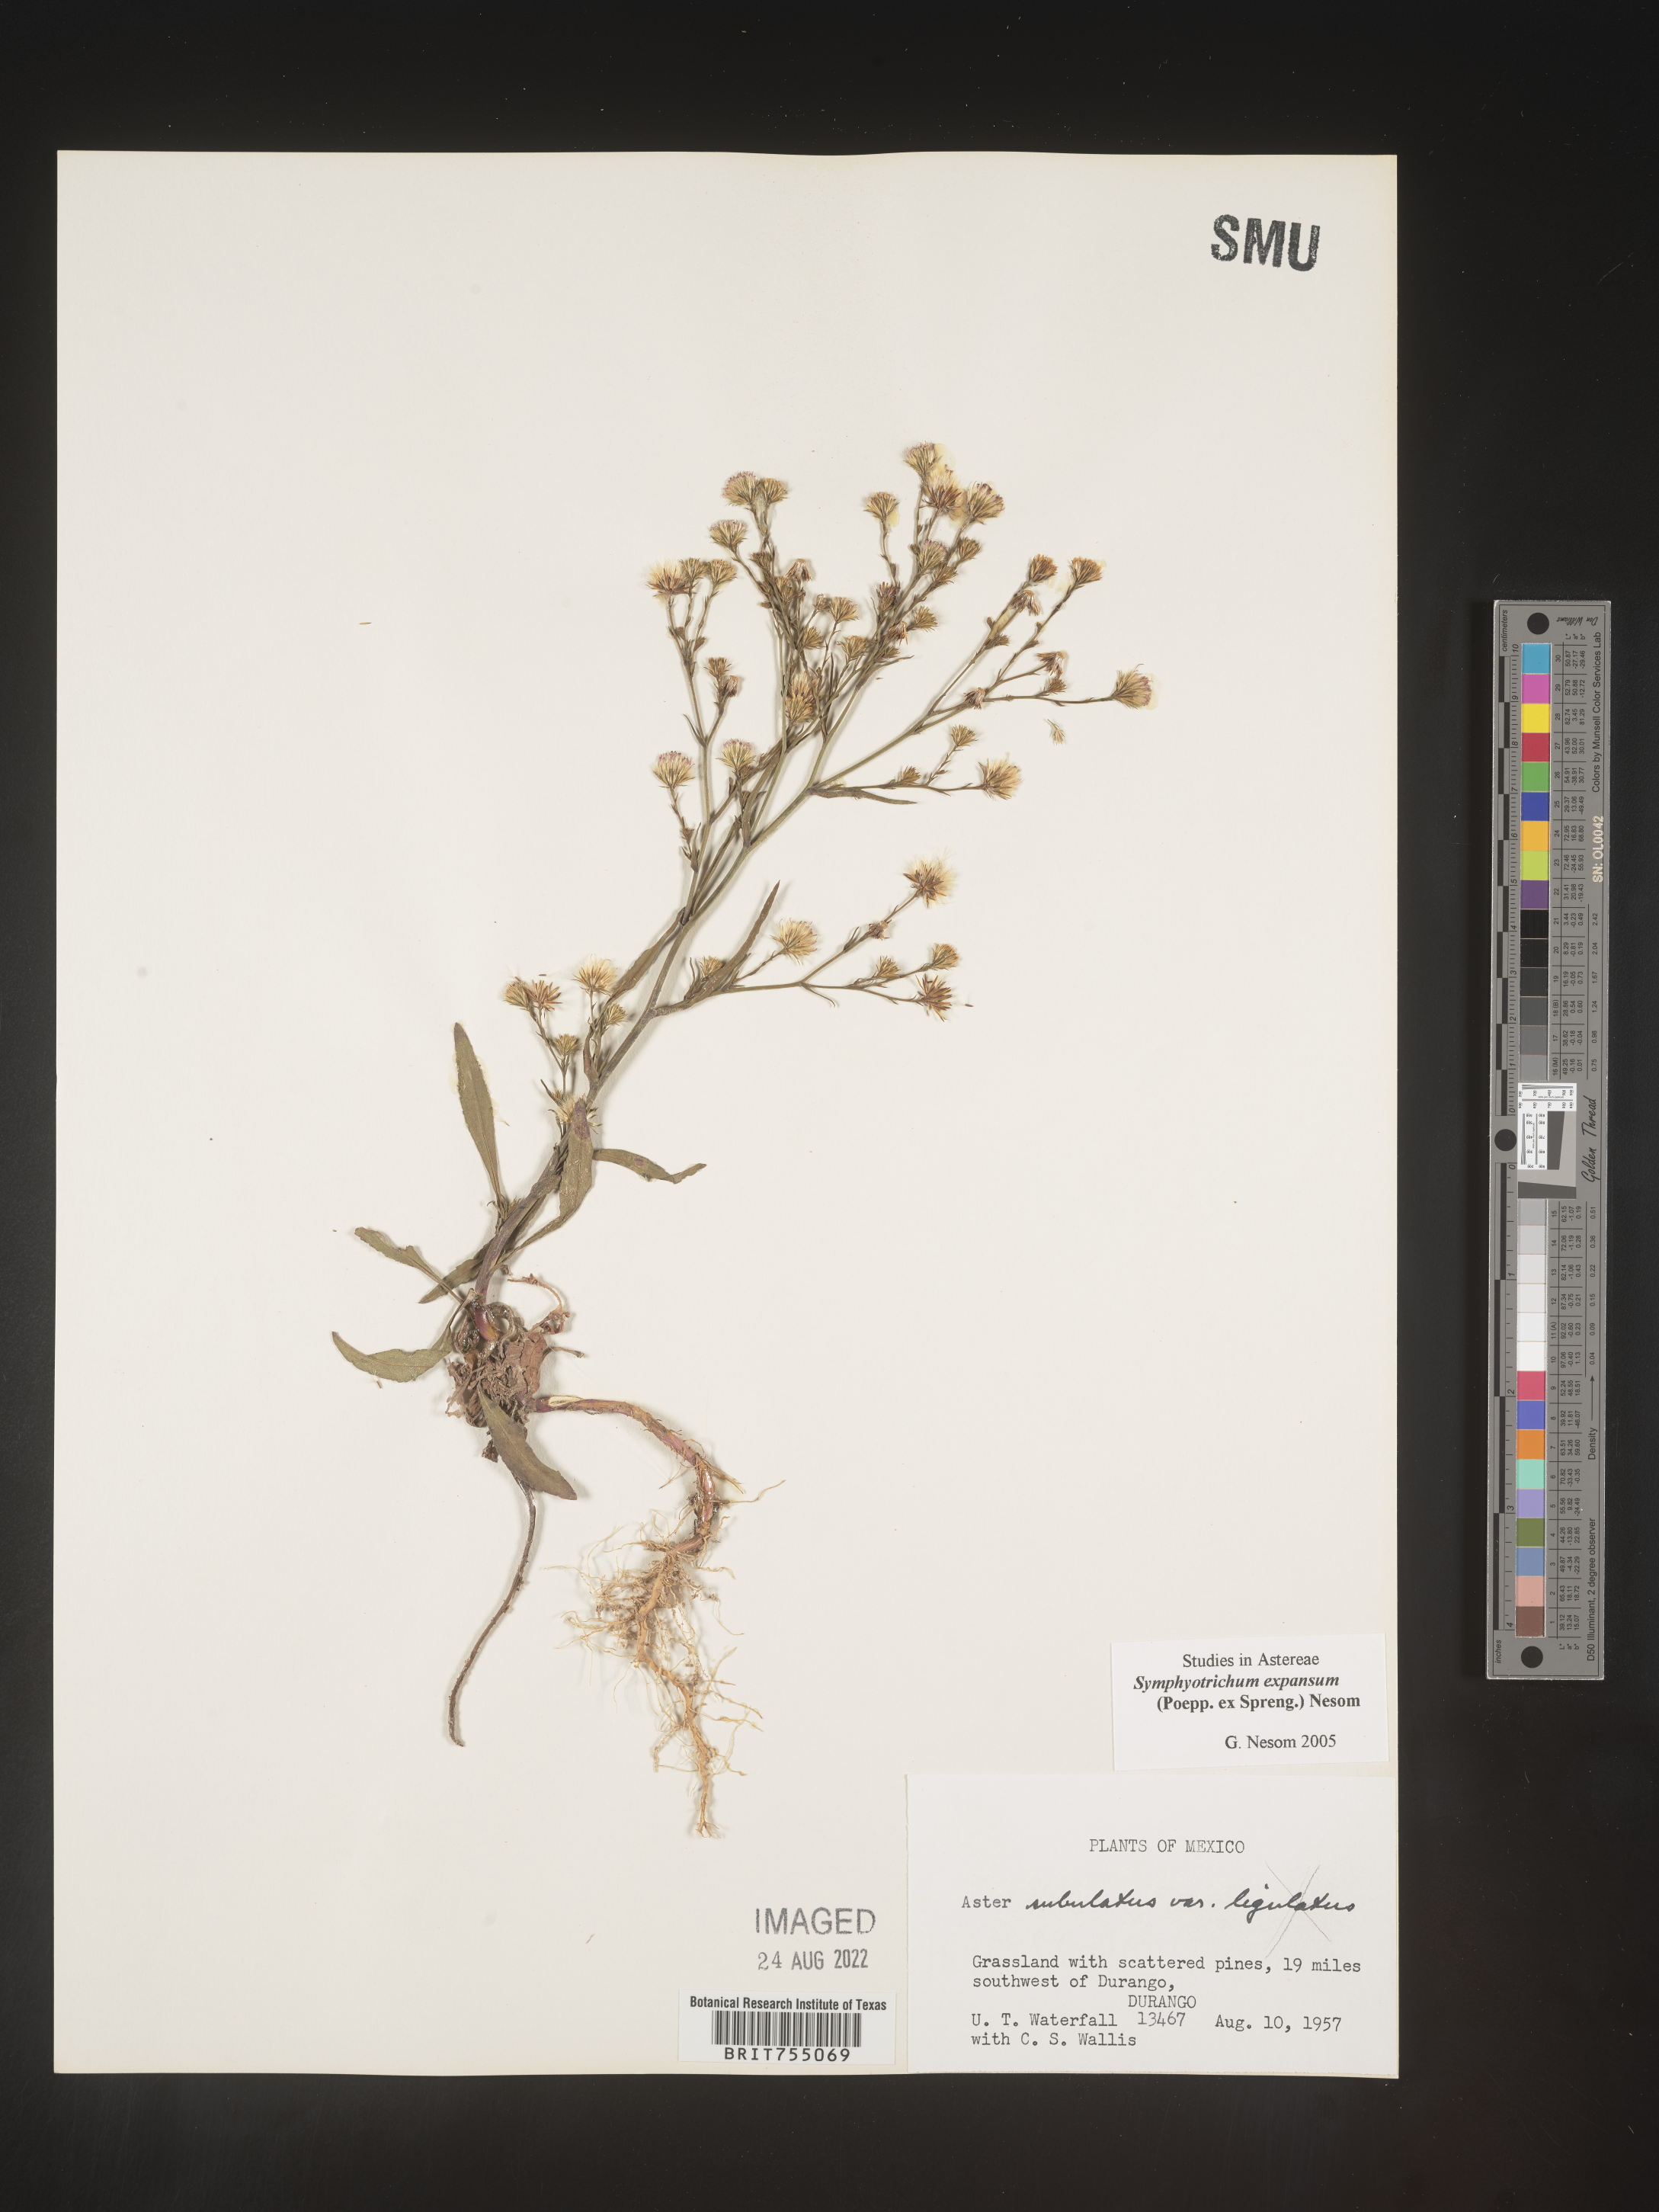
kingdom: Plantae
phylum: Tracheophyta
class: Magnoliopsida
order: Asterales
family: Asteraceae
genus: Symphyotrichum
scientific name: Symphyotrichum expansum
